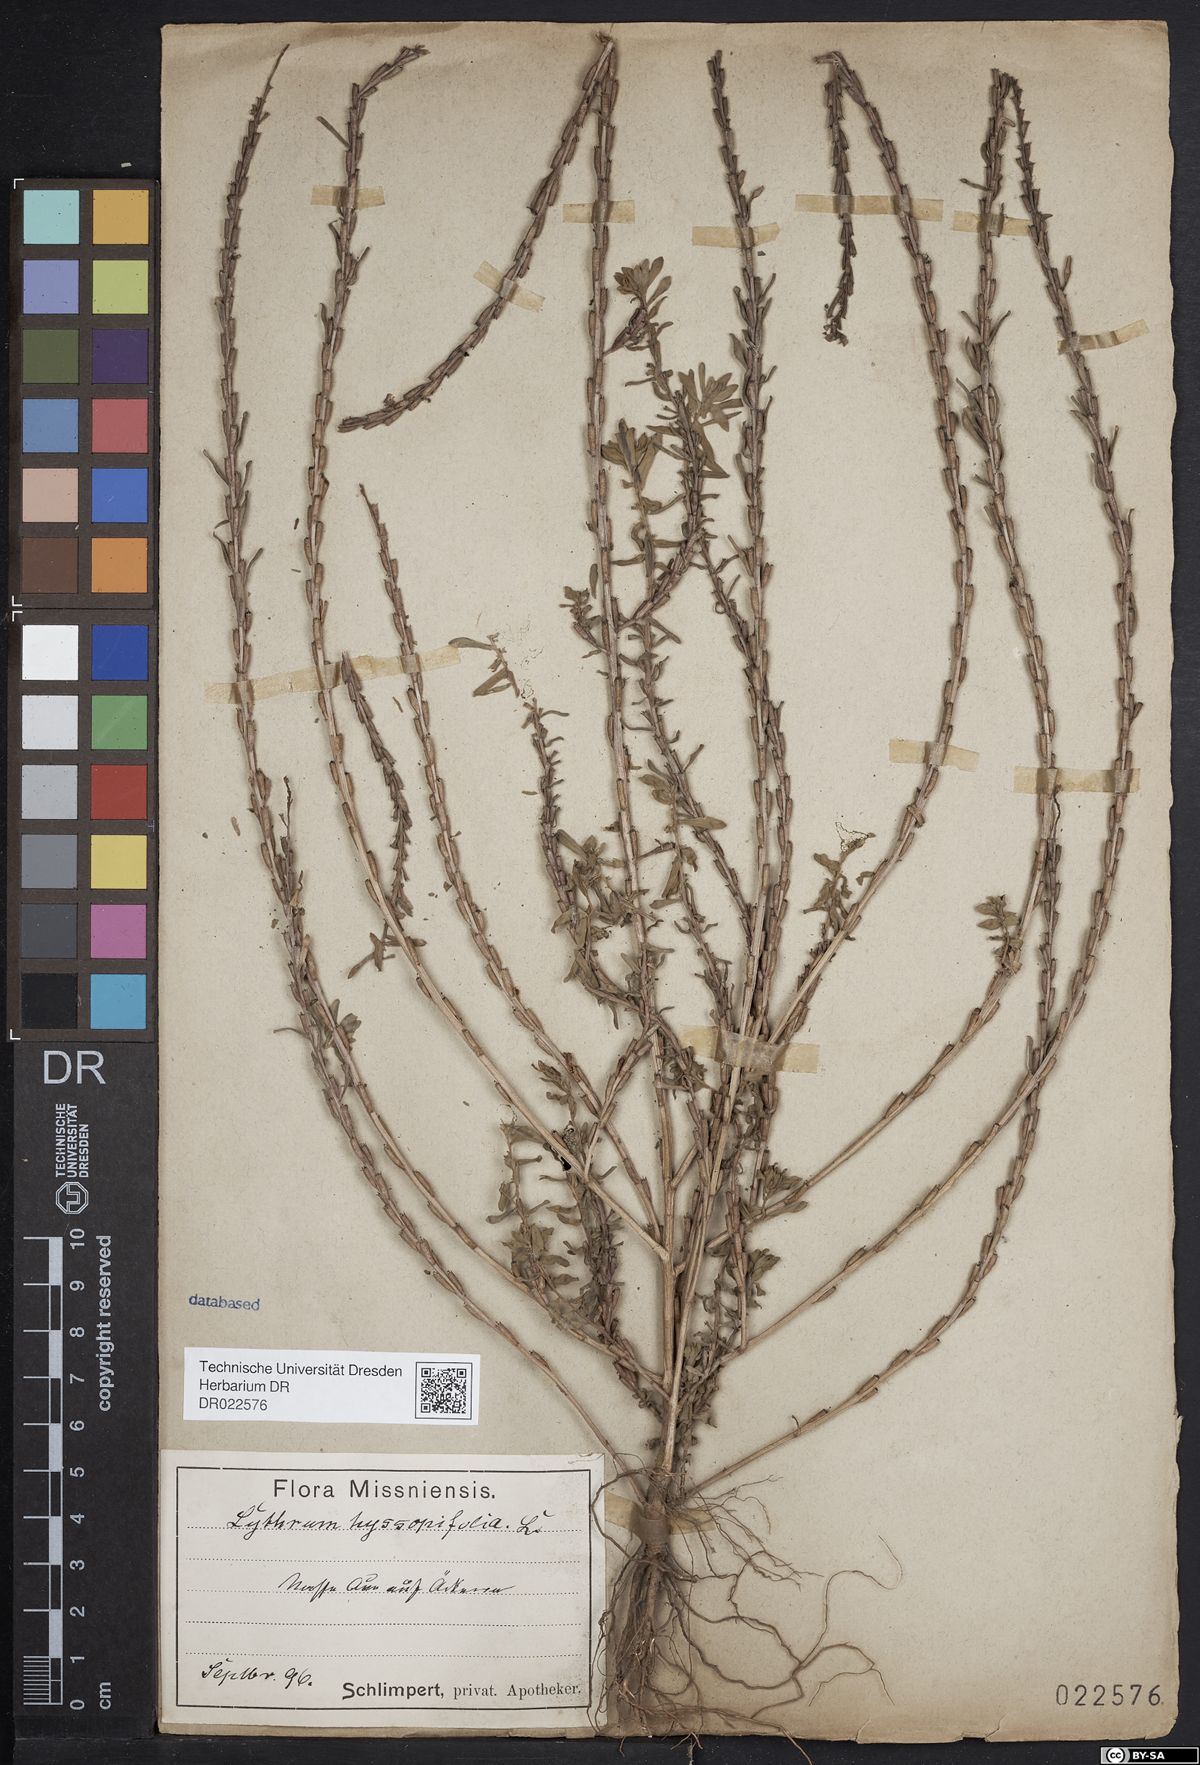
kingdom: Plantae
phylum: Tracheophyta
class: Magnoliopsida
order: Myrtales
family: Lythraceae
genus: Lythrum
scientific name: Lythrum hyssopifolia
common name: Grass-poly
